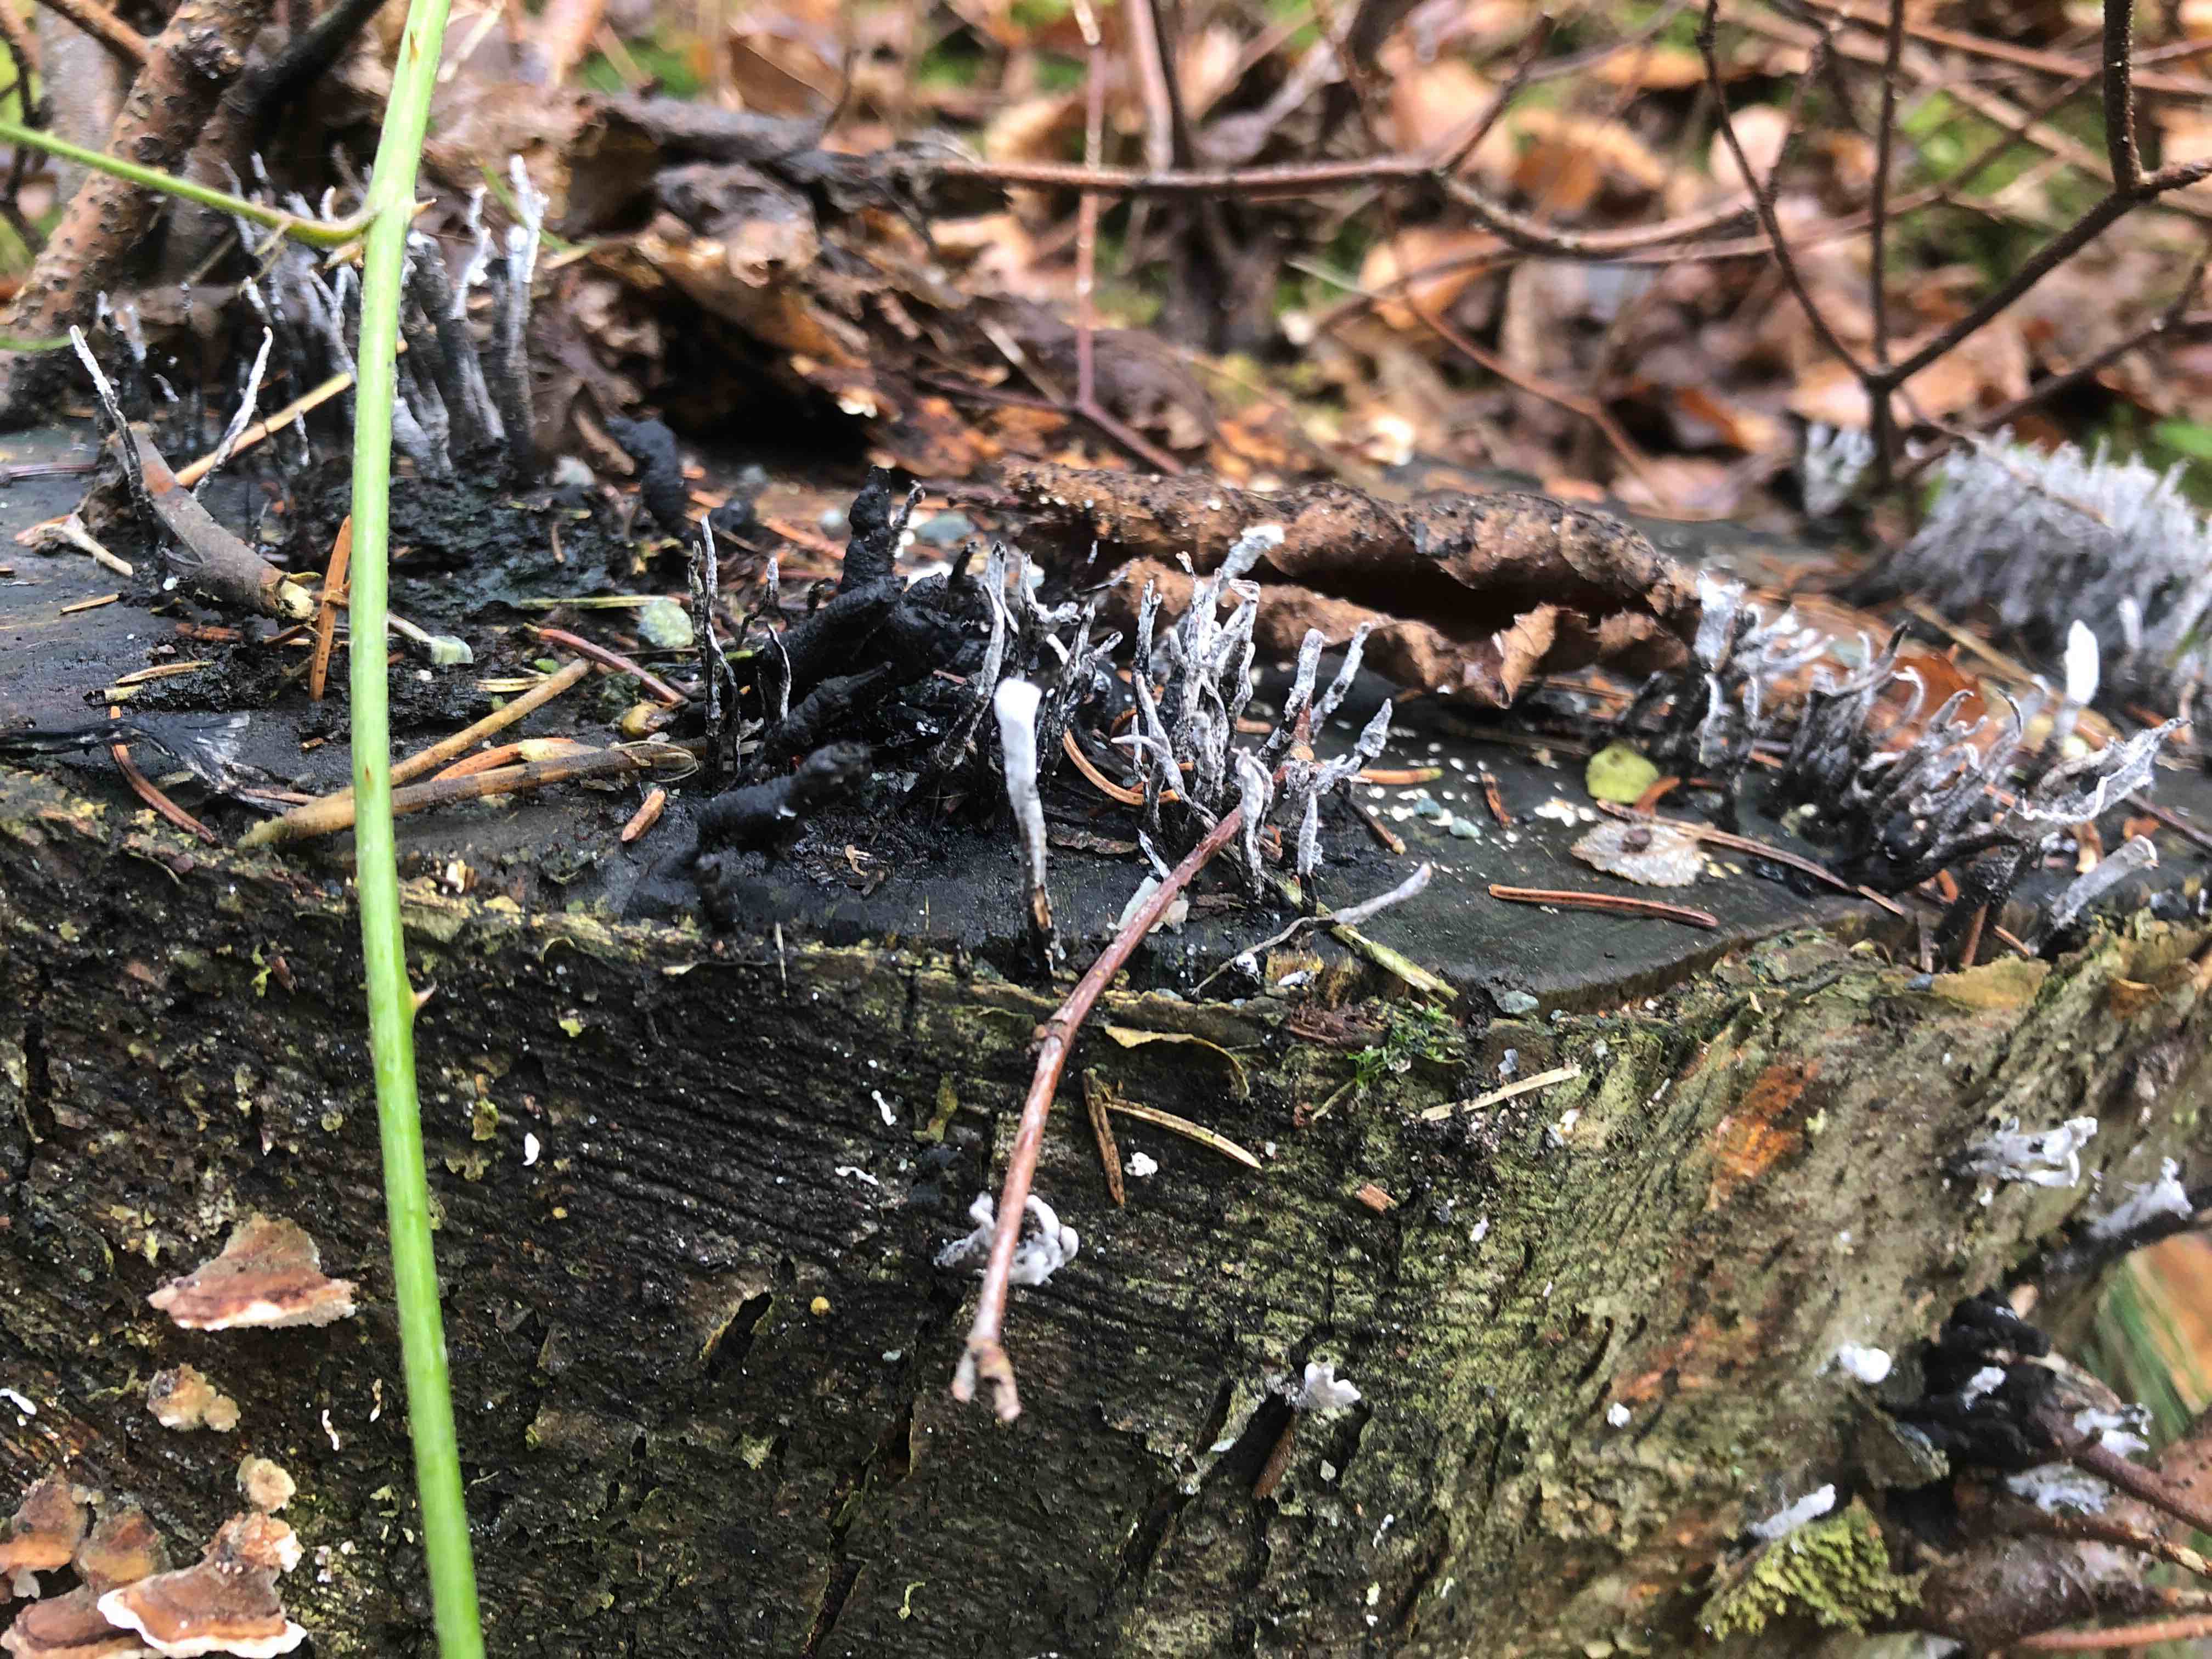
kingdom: Fungi
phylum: Ascomycota
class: Sordariomycetes
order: Xylariales
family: Xylariaceae
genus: Xylaria
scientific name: Xylaria hypoxylon
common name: grenet stødsvamp
